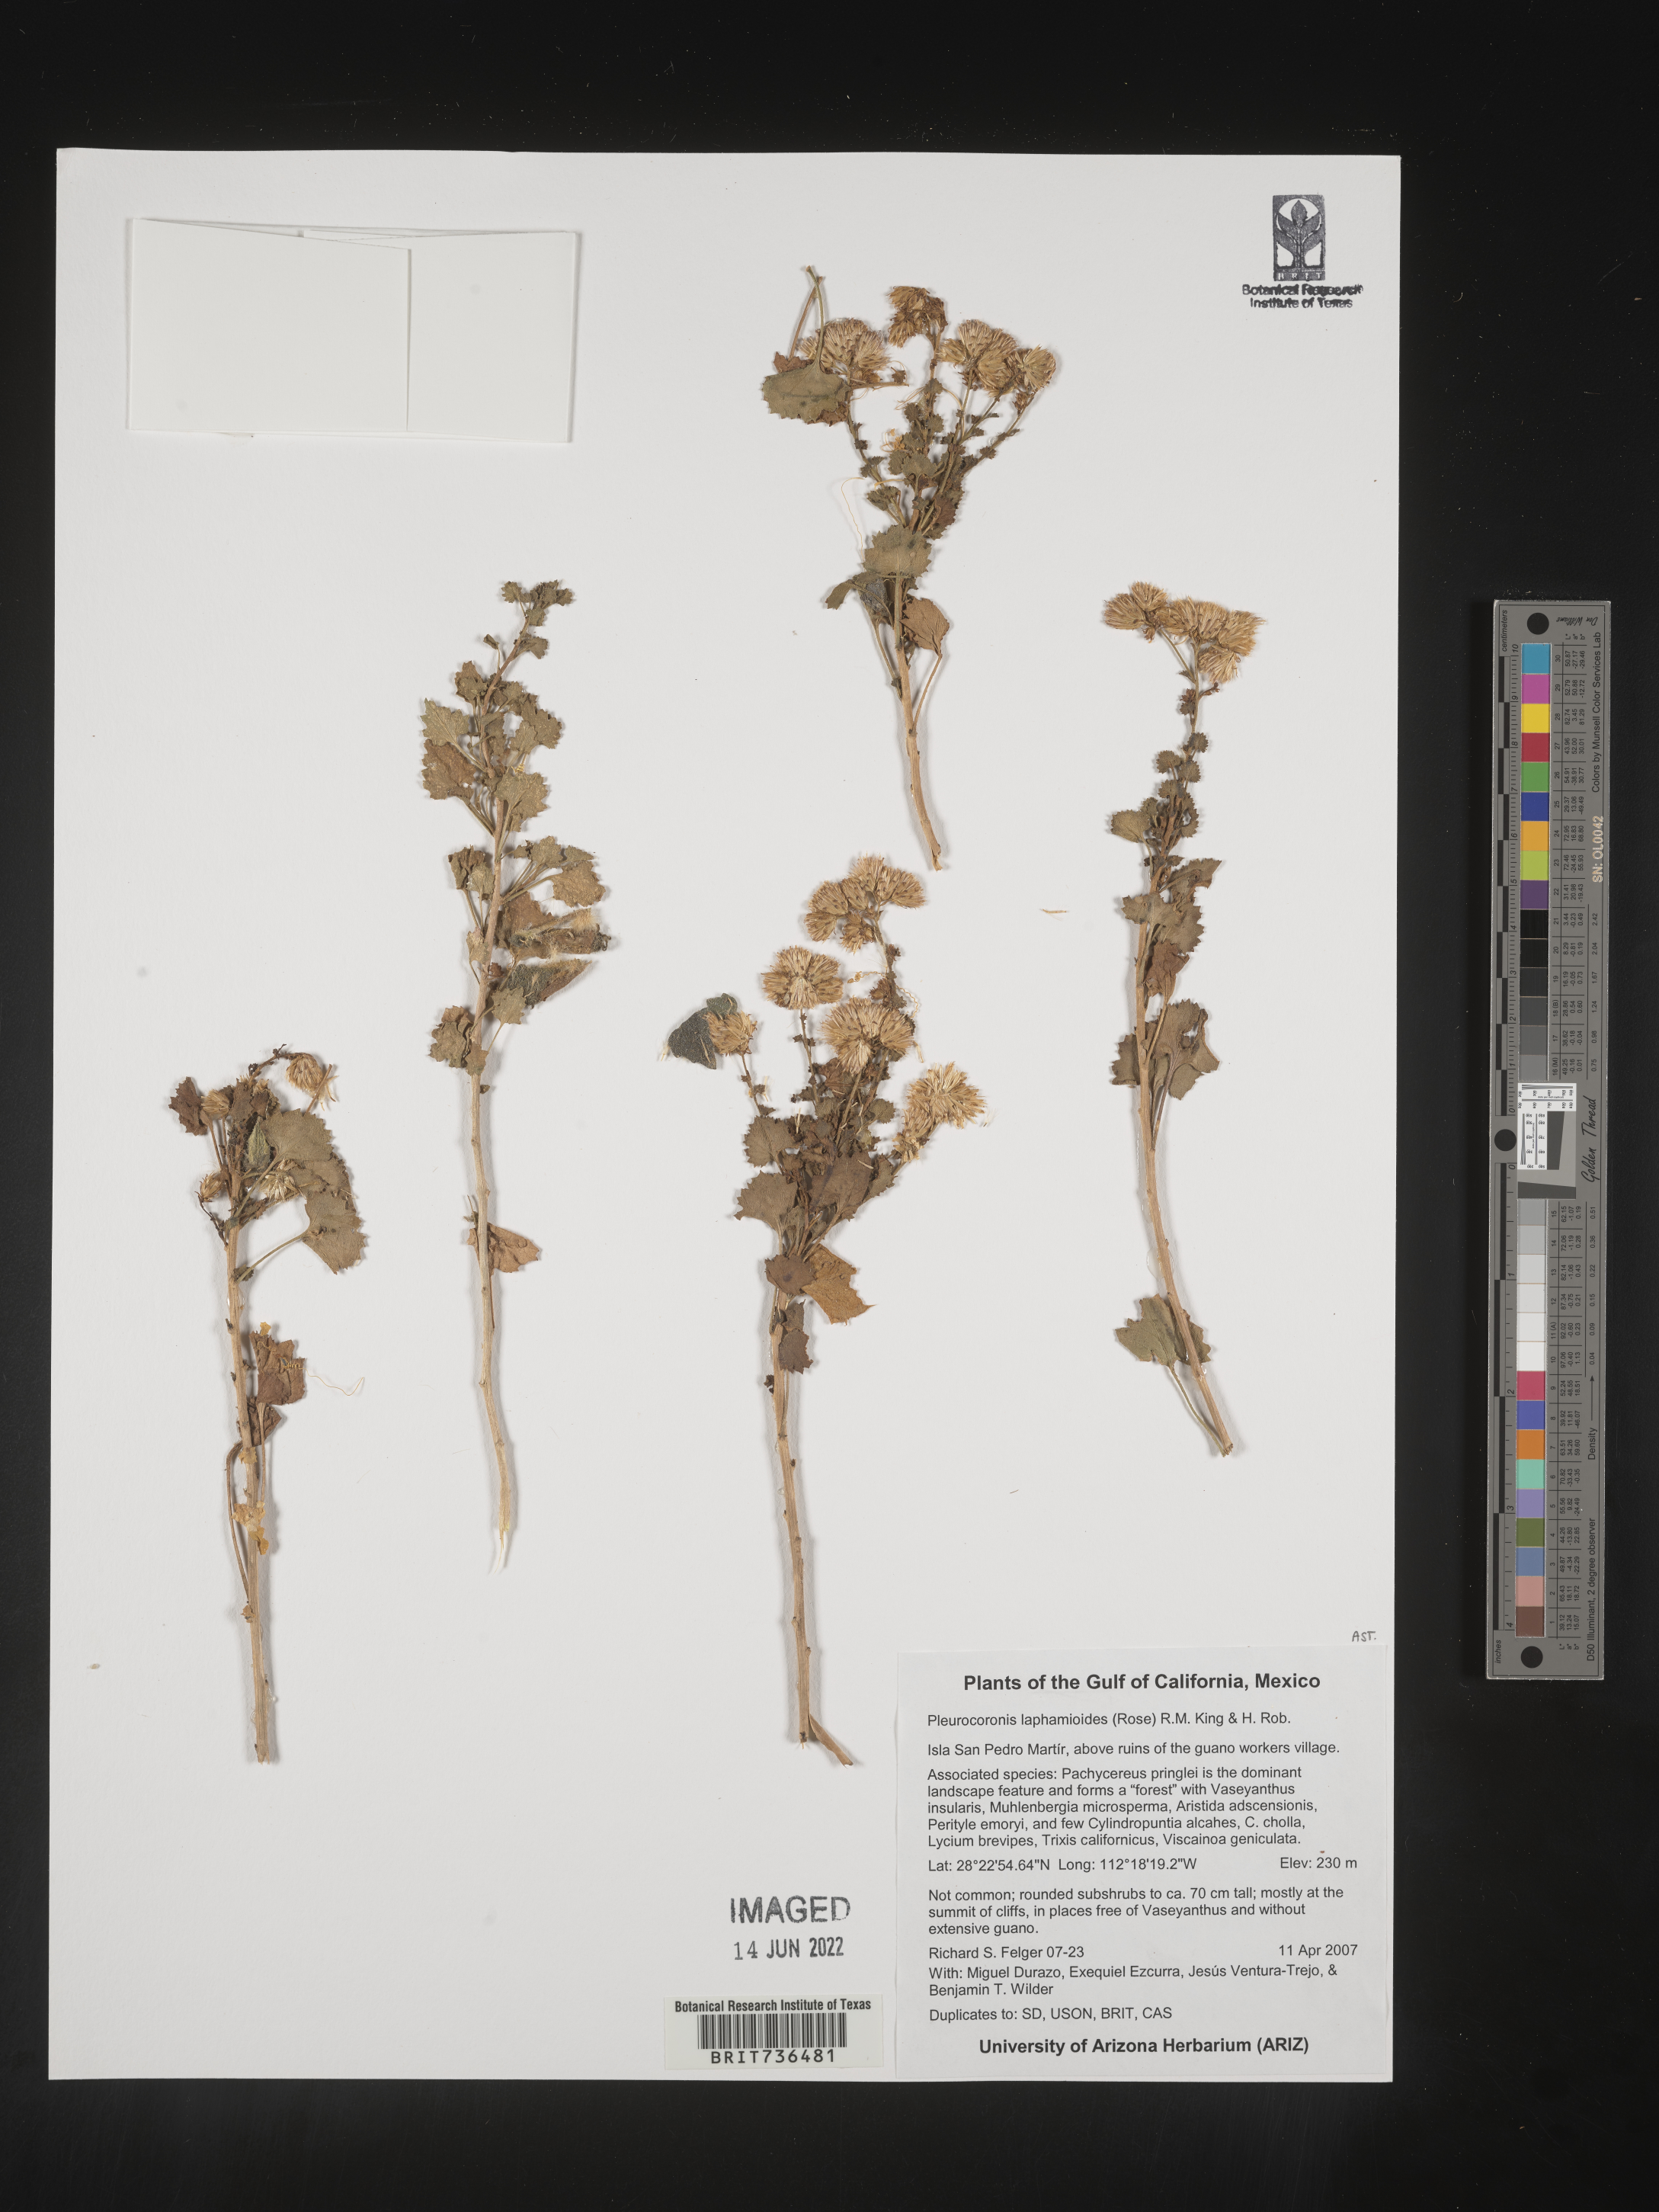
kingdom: Plantae
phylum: Tracheophyta
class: Magnoliopsida
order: Asterales
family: Asteraceae
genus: Pleurocoronis
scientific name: Pleurocoronis
